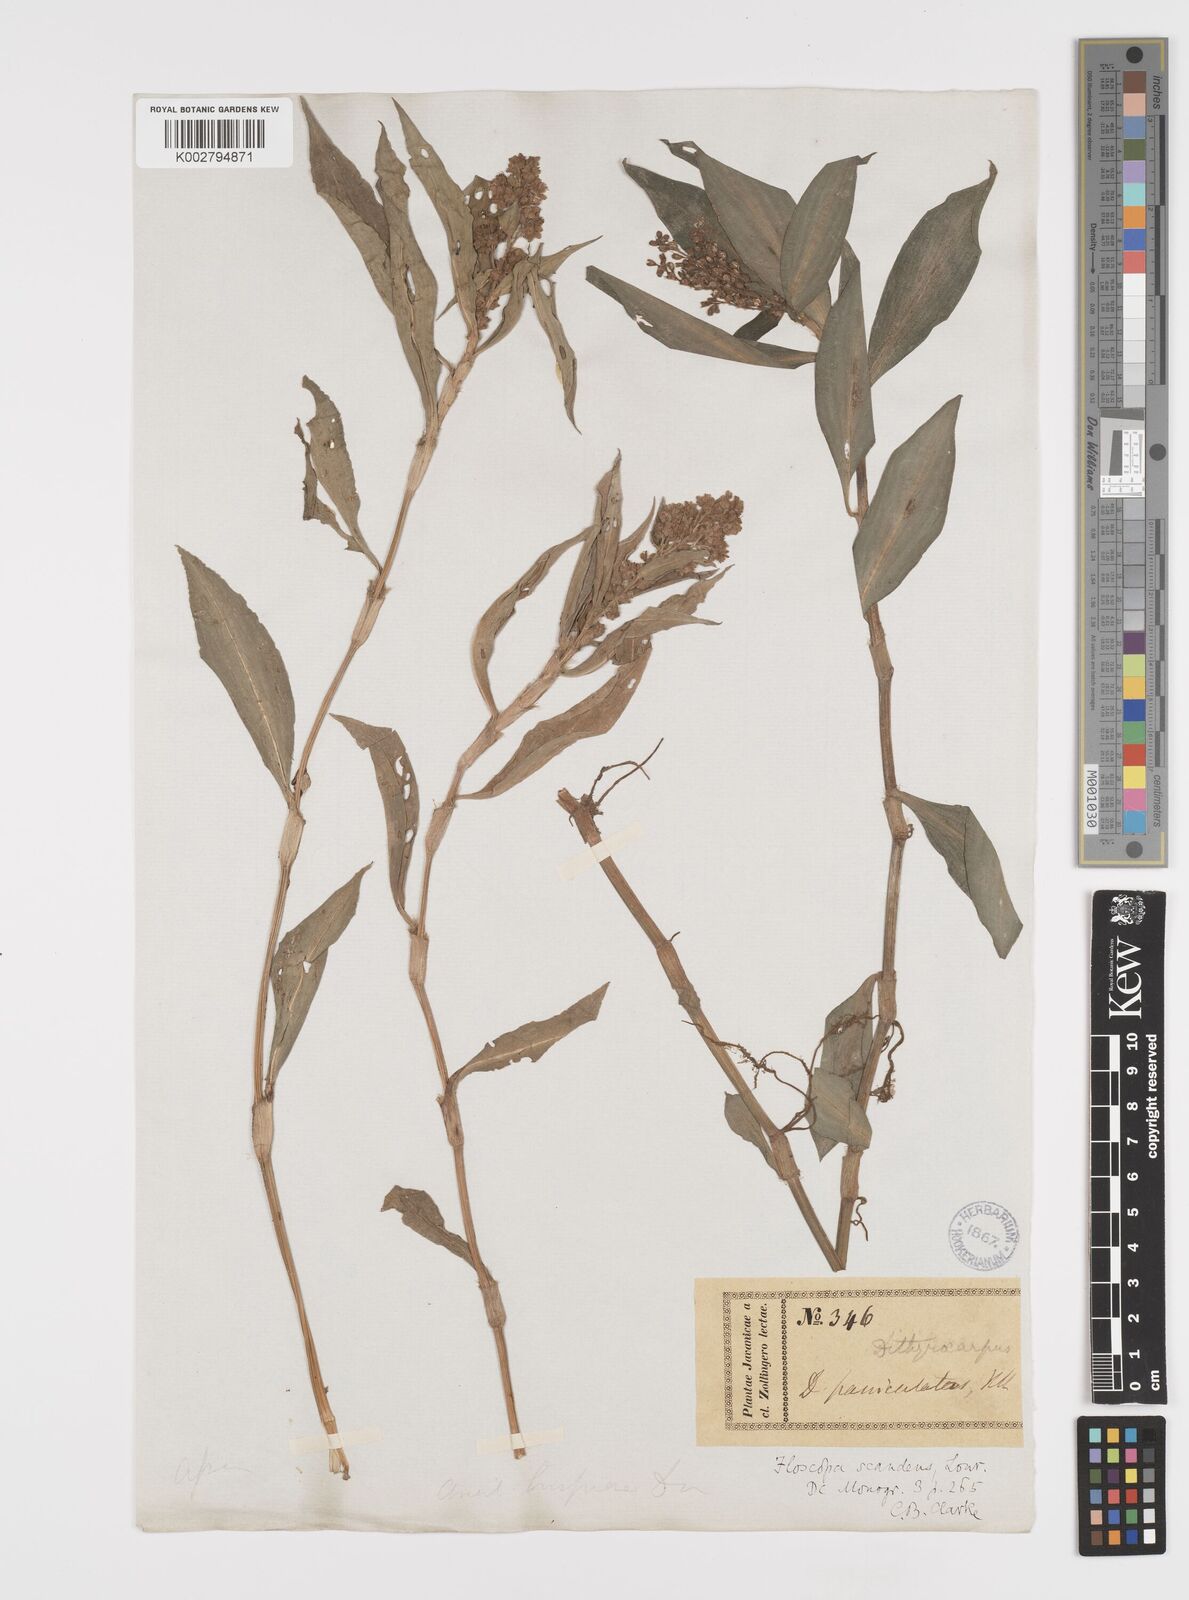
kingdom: Plantae
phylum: Tracheophyta
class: Liliopsida
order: Commelinales
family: Commelinaceae
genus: Floscopa
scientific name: Floscopa scandens
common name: Climbing flower cup
